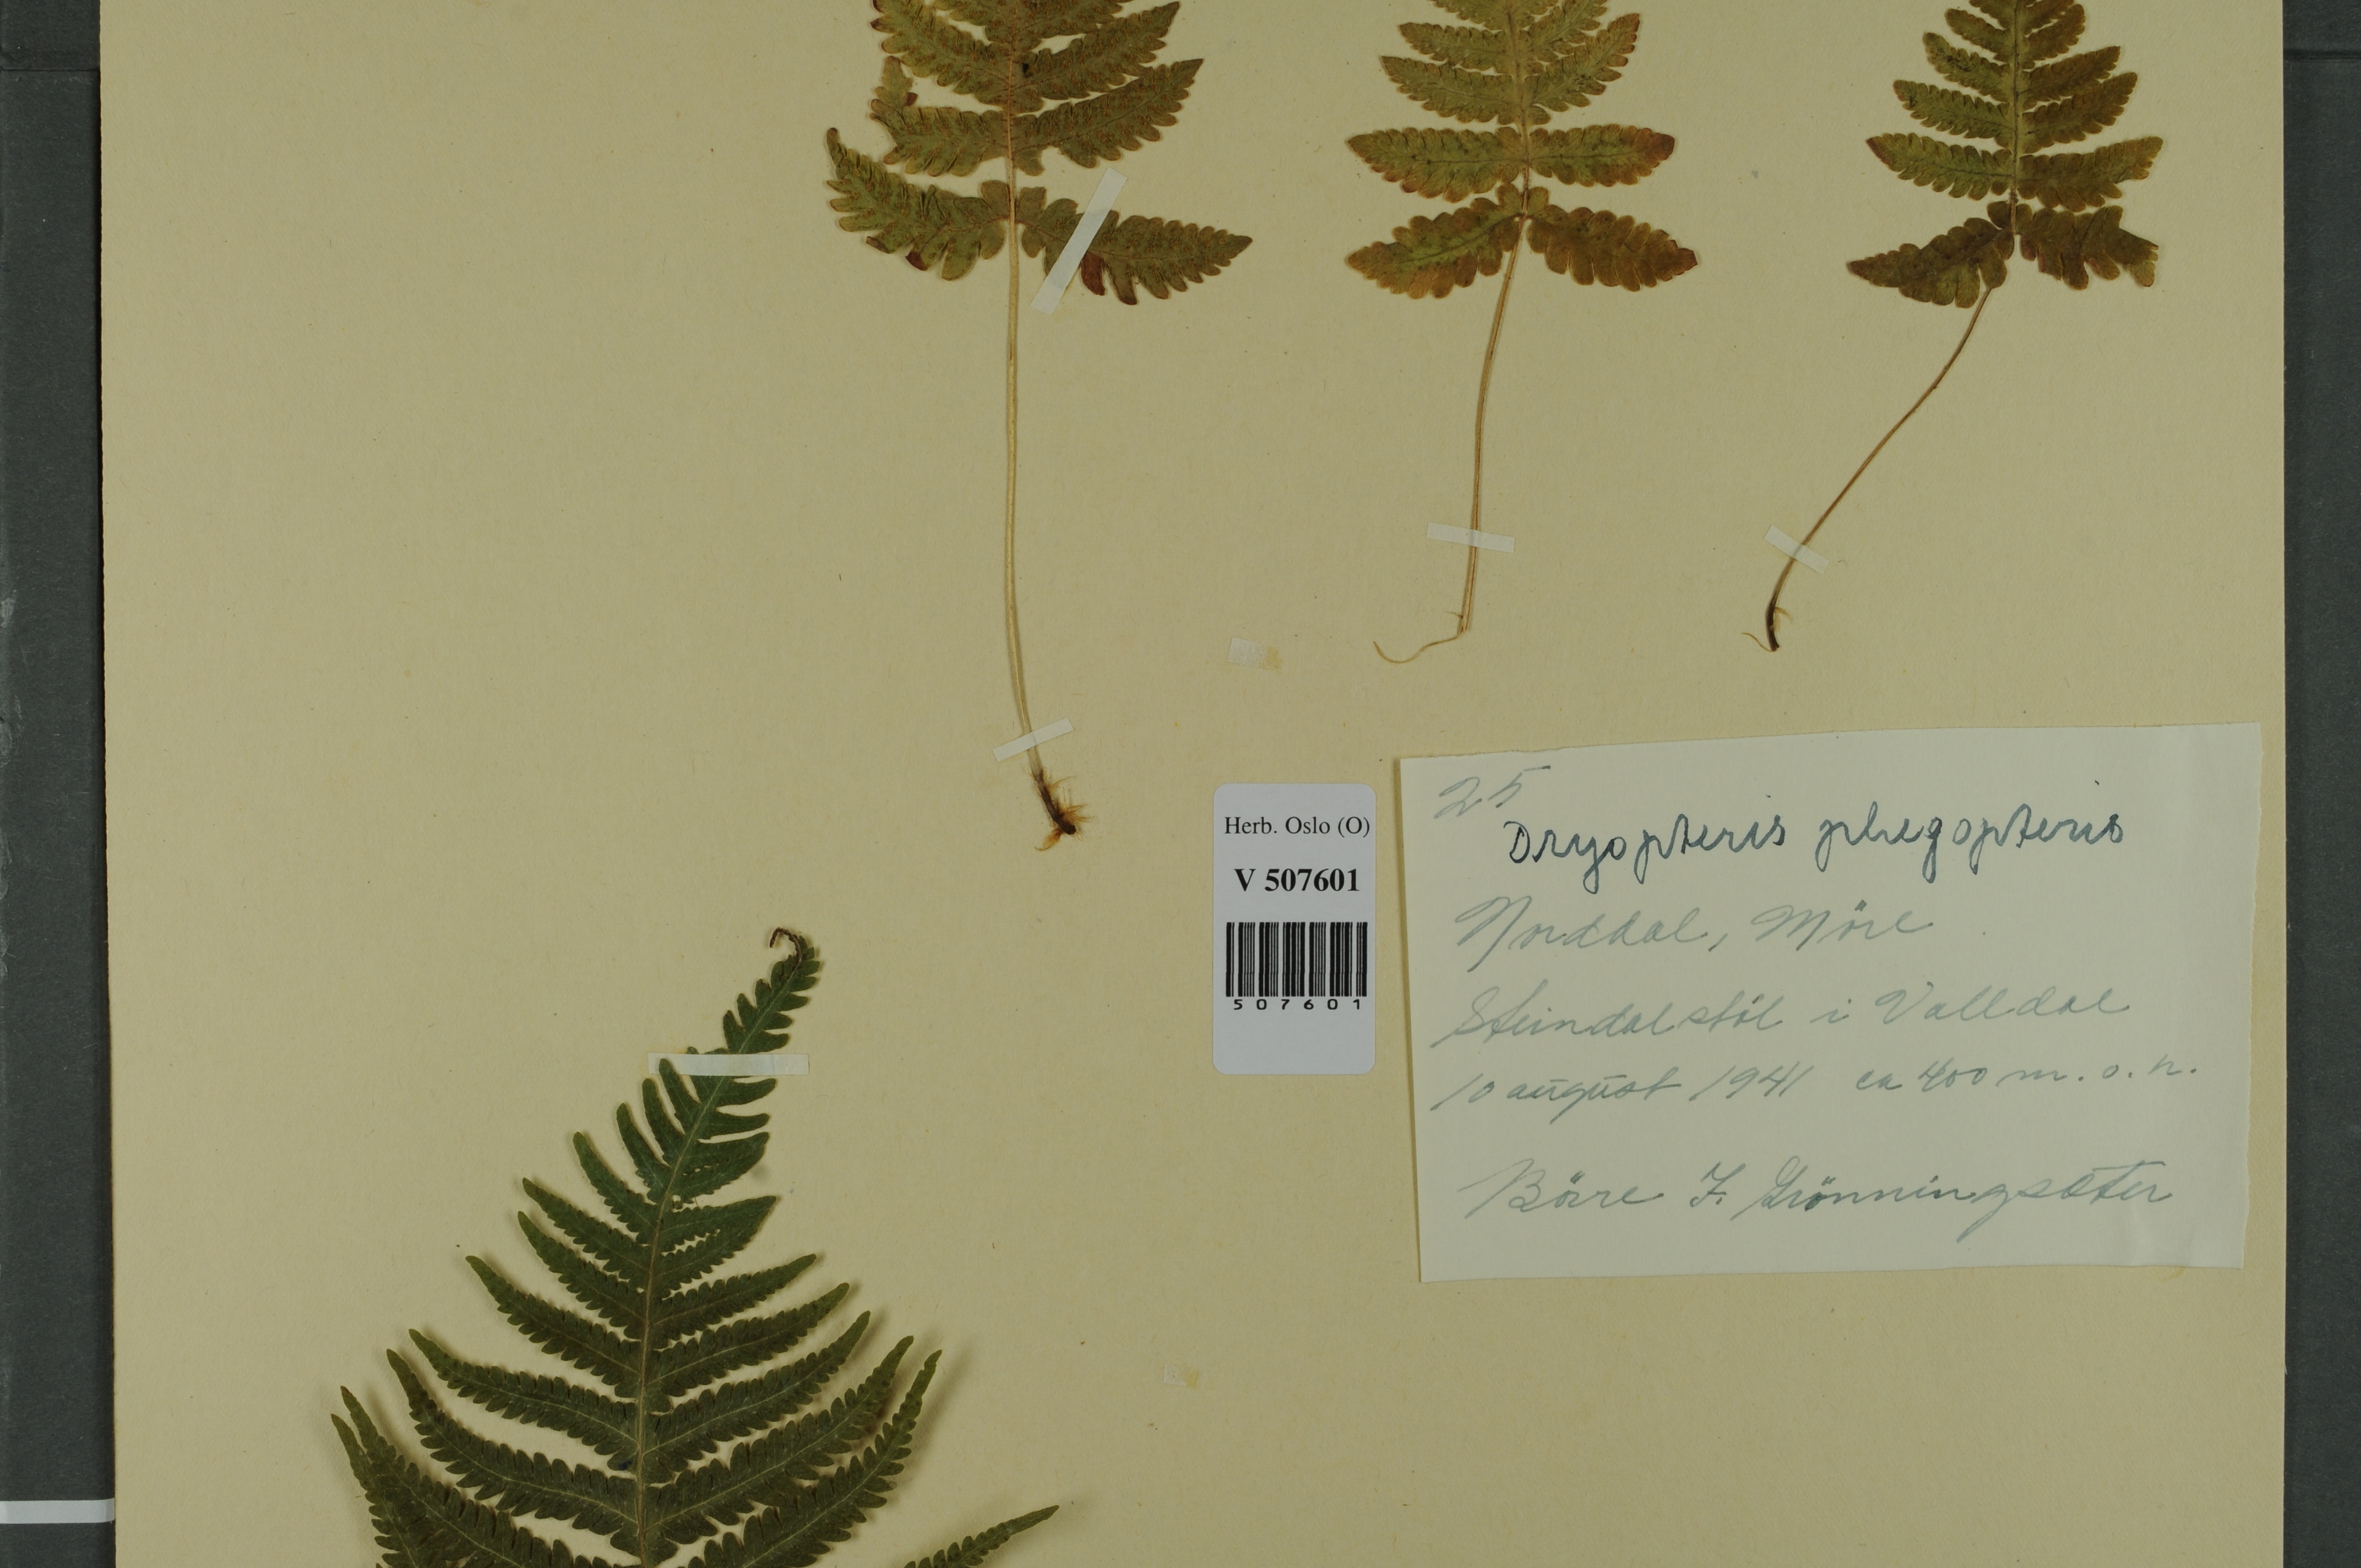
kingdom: Plantae
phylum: Tracheophyta
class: Polypodiopsida
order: Polypodiales
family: Thelypteridaceae
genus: Phegopteris
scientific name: Phegopteris connectilis
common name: Beech fern
